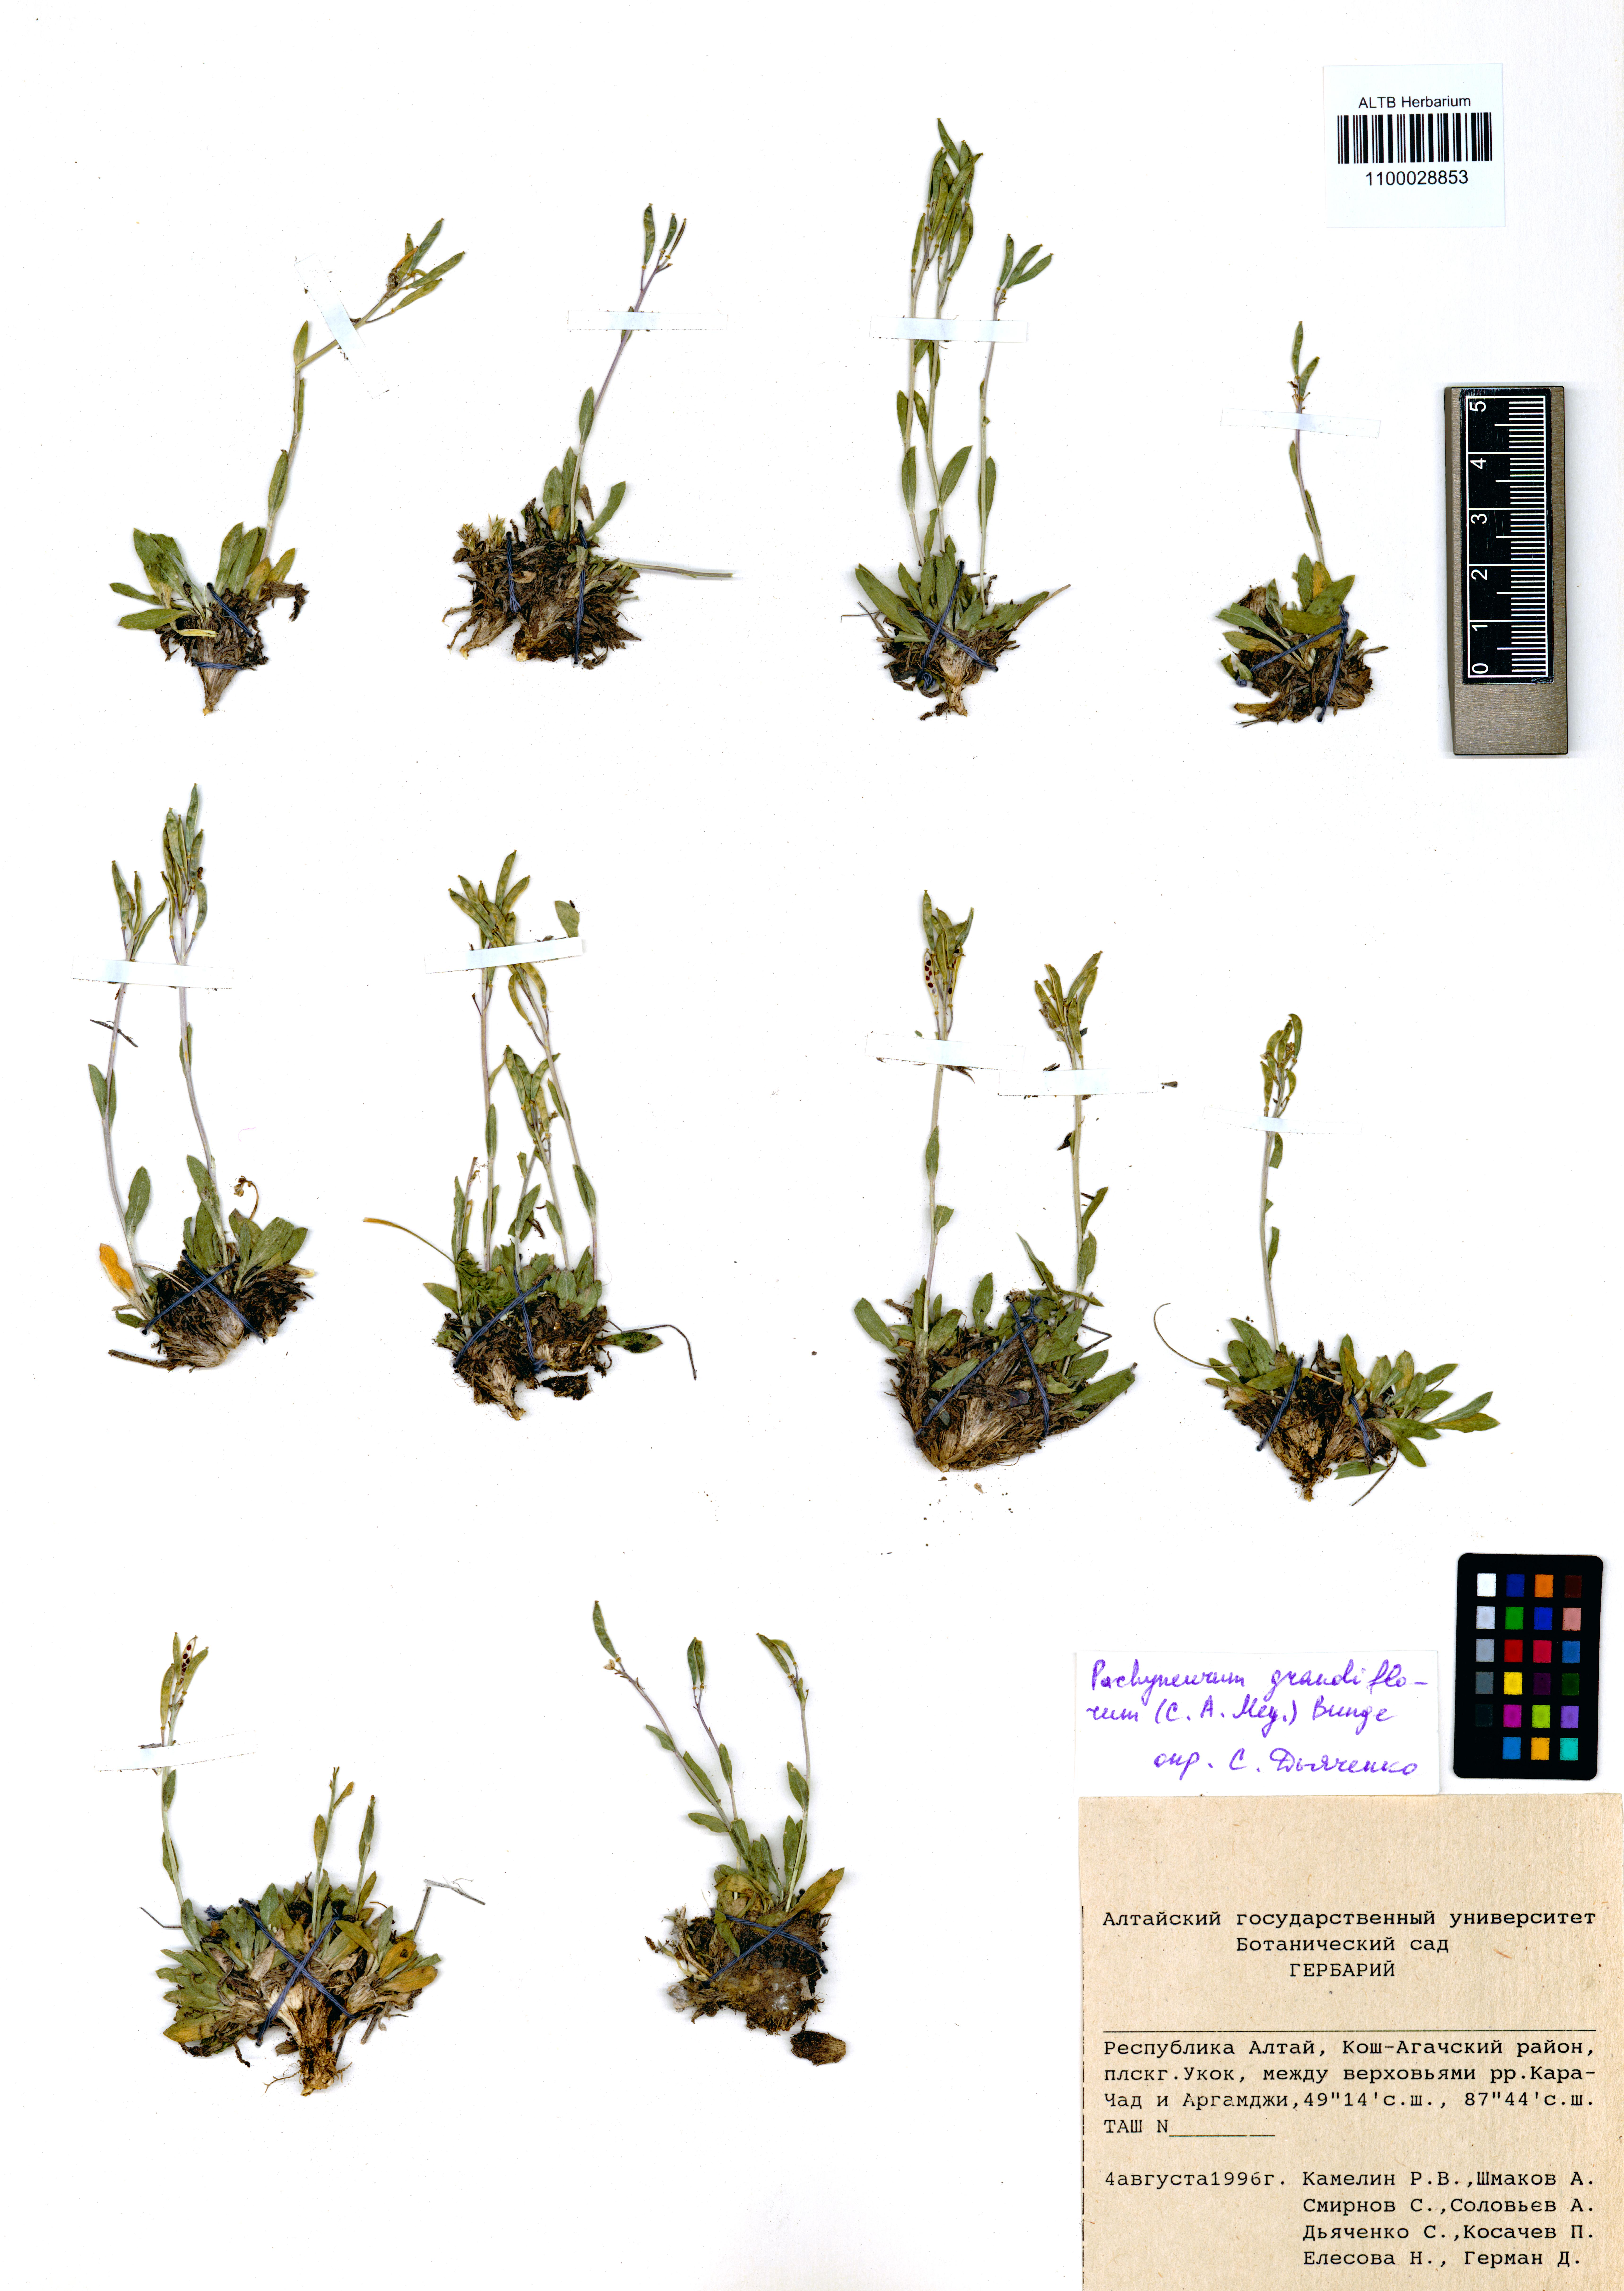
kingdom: Plantae
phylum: Tracheophyta
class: Magnoliopsida
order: Brassicales
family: Brassicaceae
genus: Pachyneurum
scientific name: Pachyneurum grandiflorum
